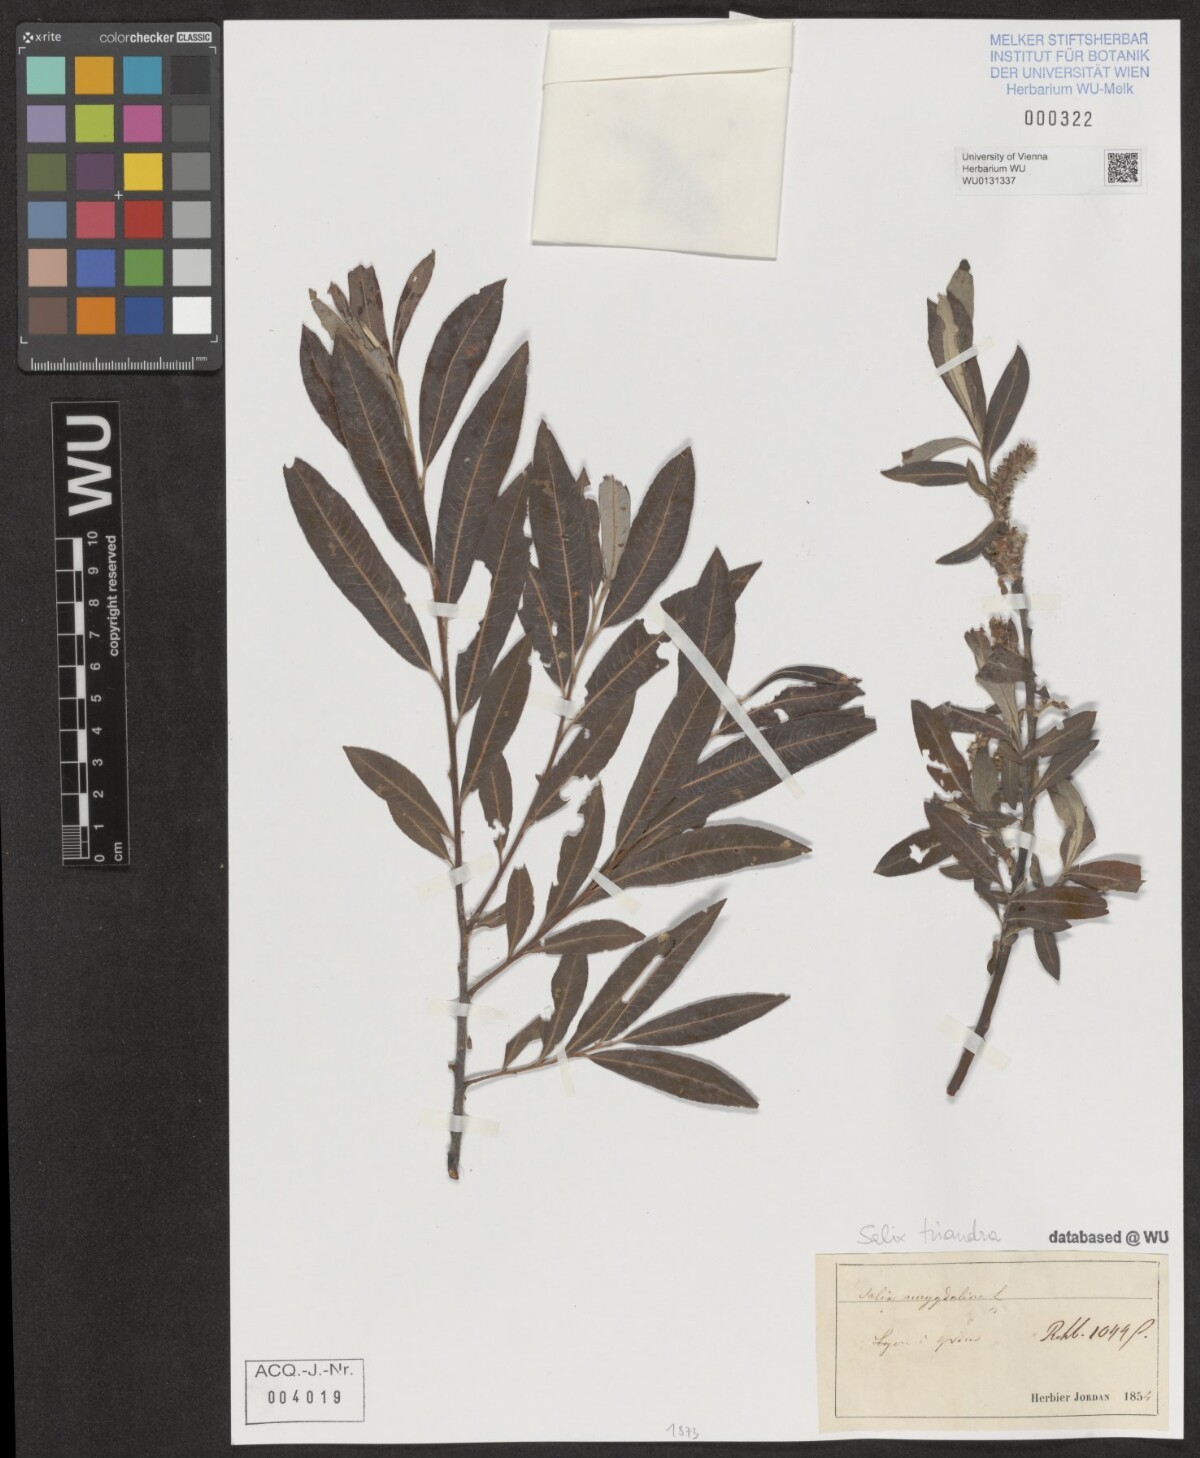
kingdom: Plantae
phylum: Tracheophyta
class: Magnoliopsida
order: Malpighiales
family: Salicaceae
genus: Salix
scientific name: Salix triandra
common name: Almond willow
